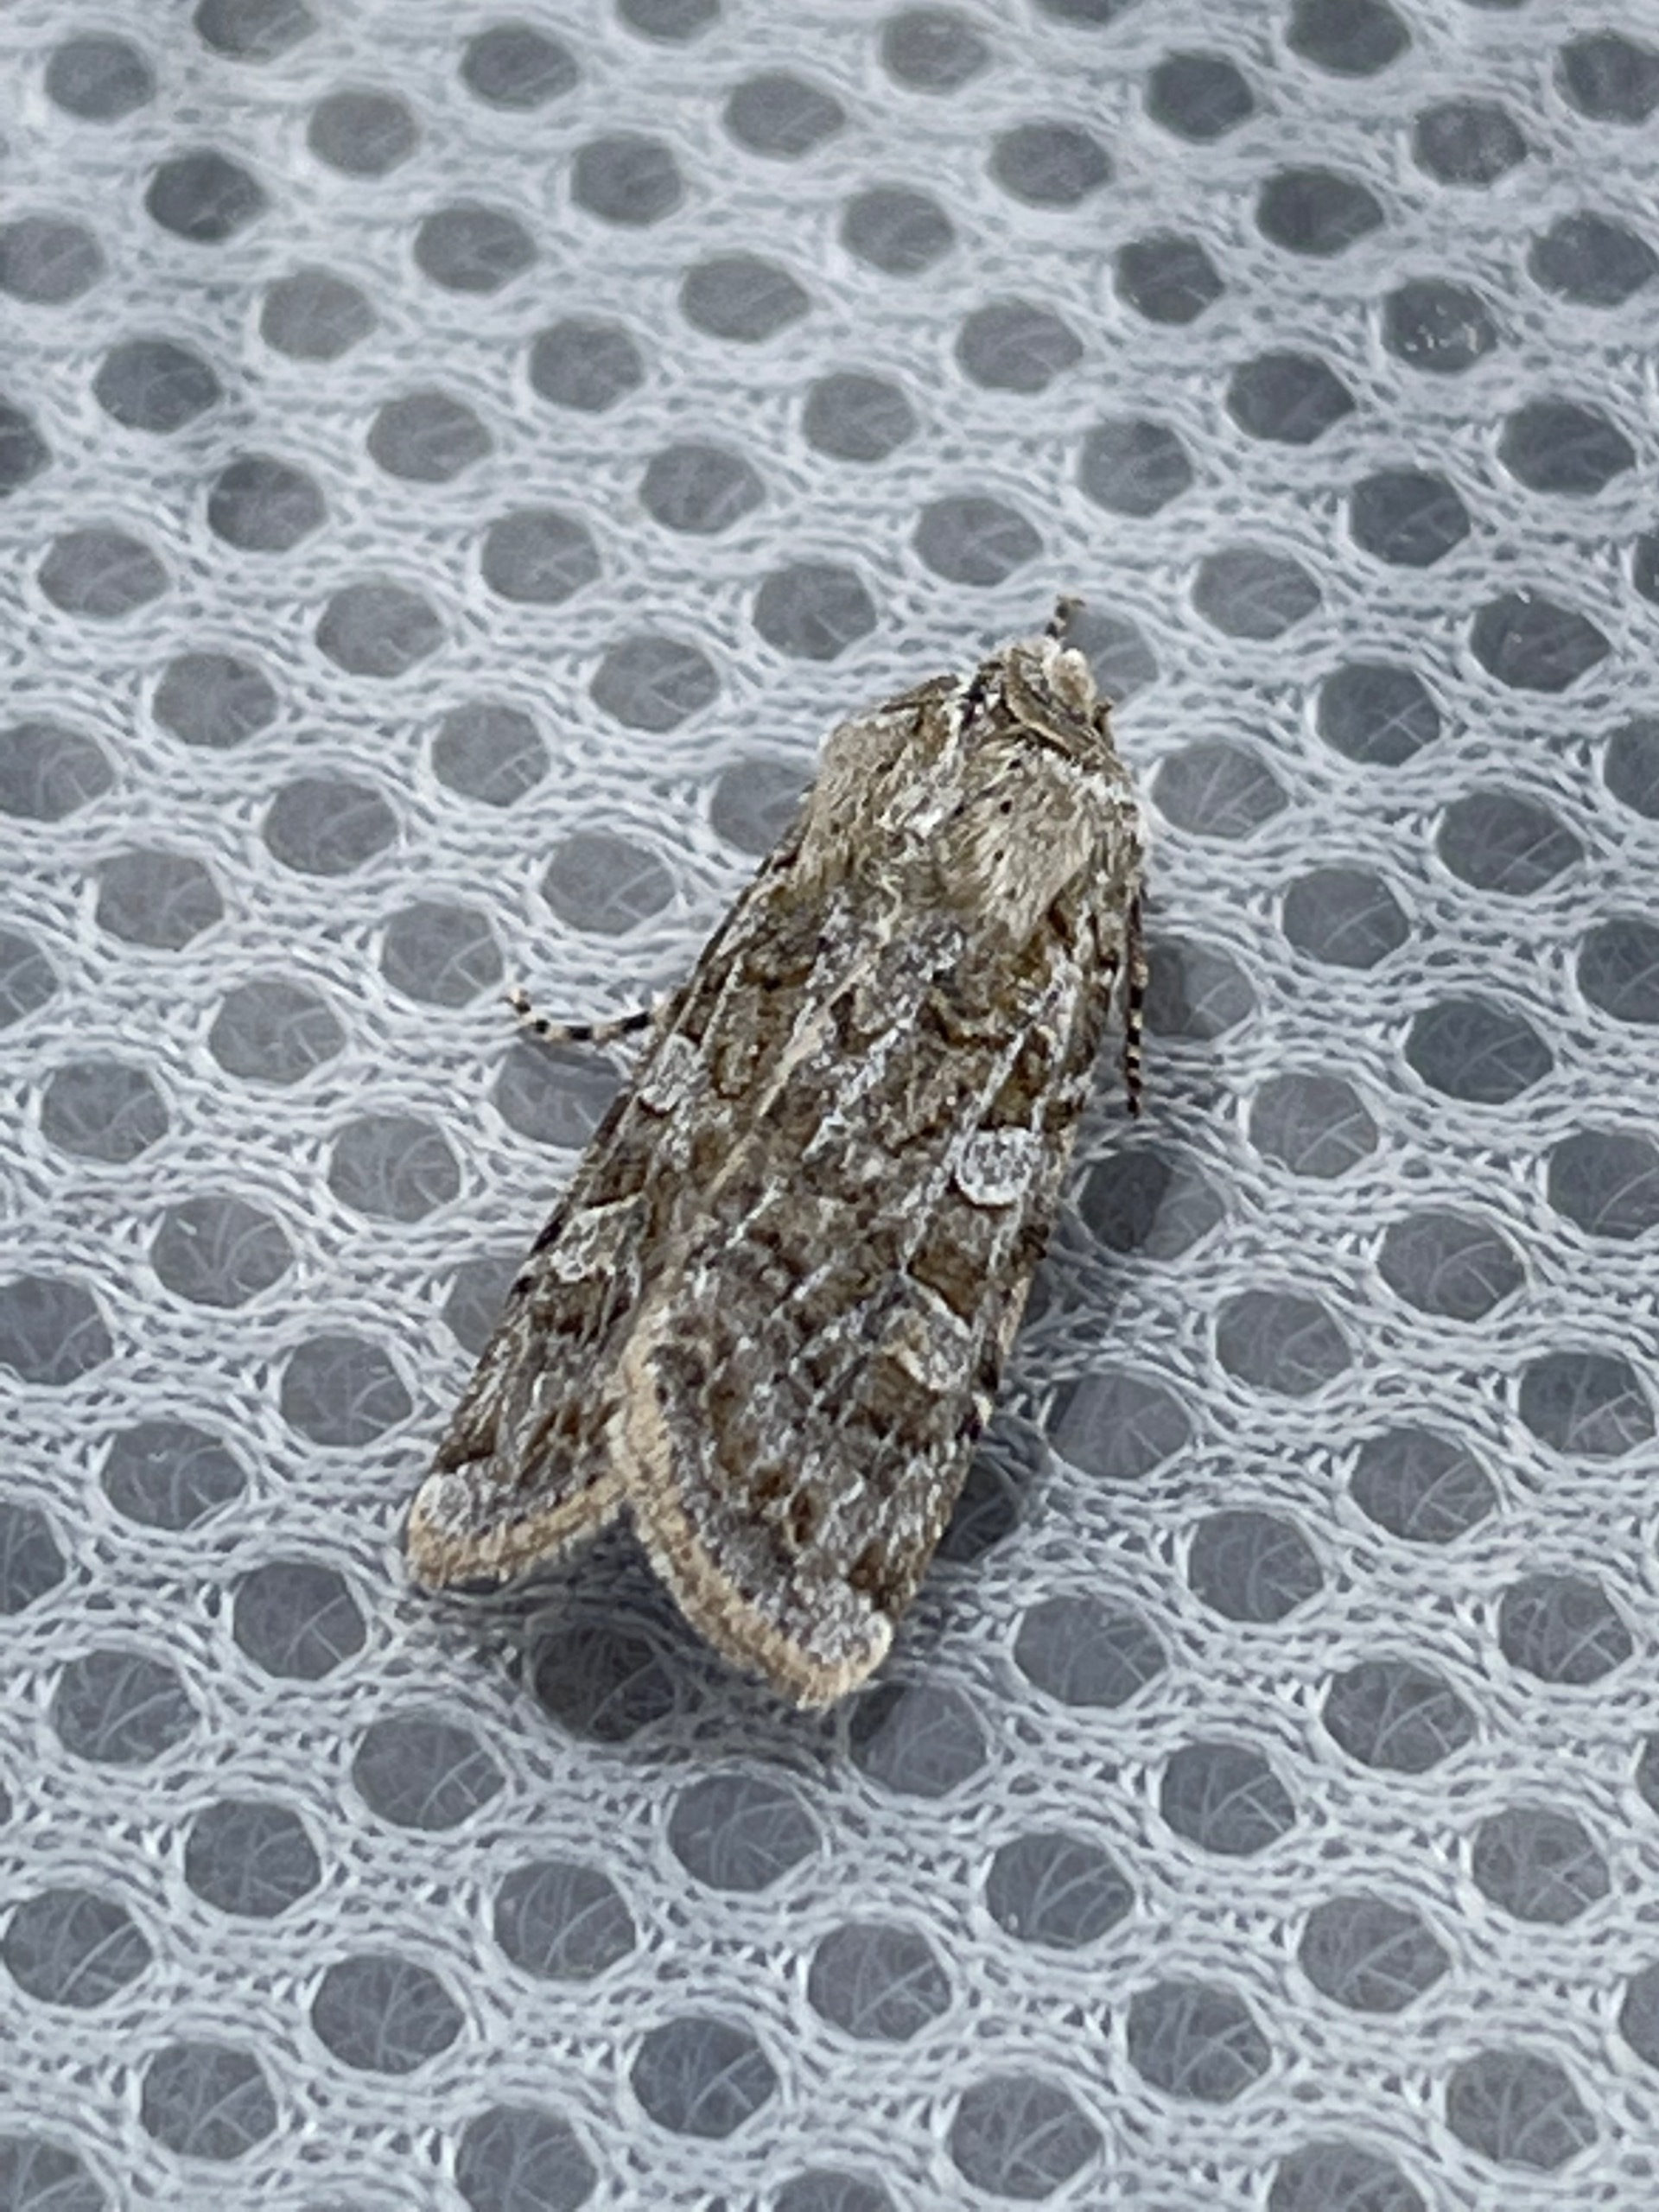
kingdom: Animalia
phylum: Arthropoda
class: Insecta
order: Lepidoptera
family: Noctuidae
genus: Euxoa
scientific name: Euxoa cursoria
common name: Sandugle
